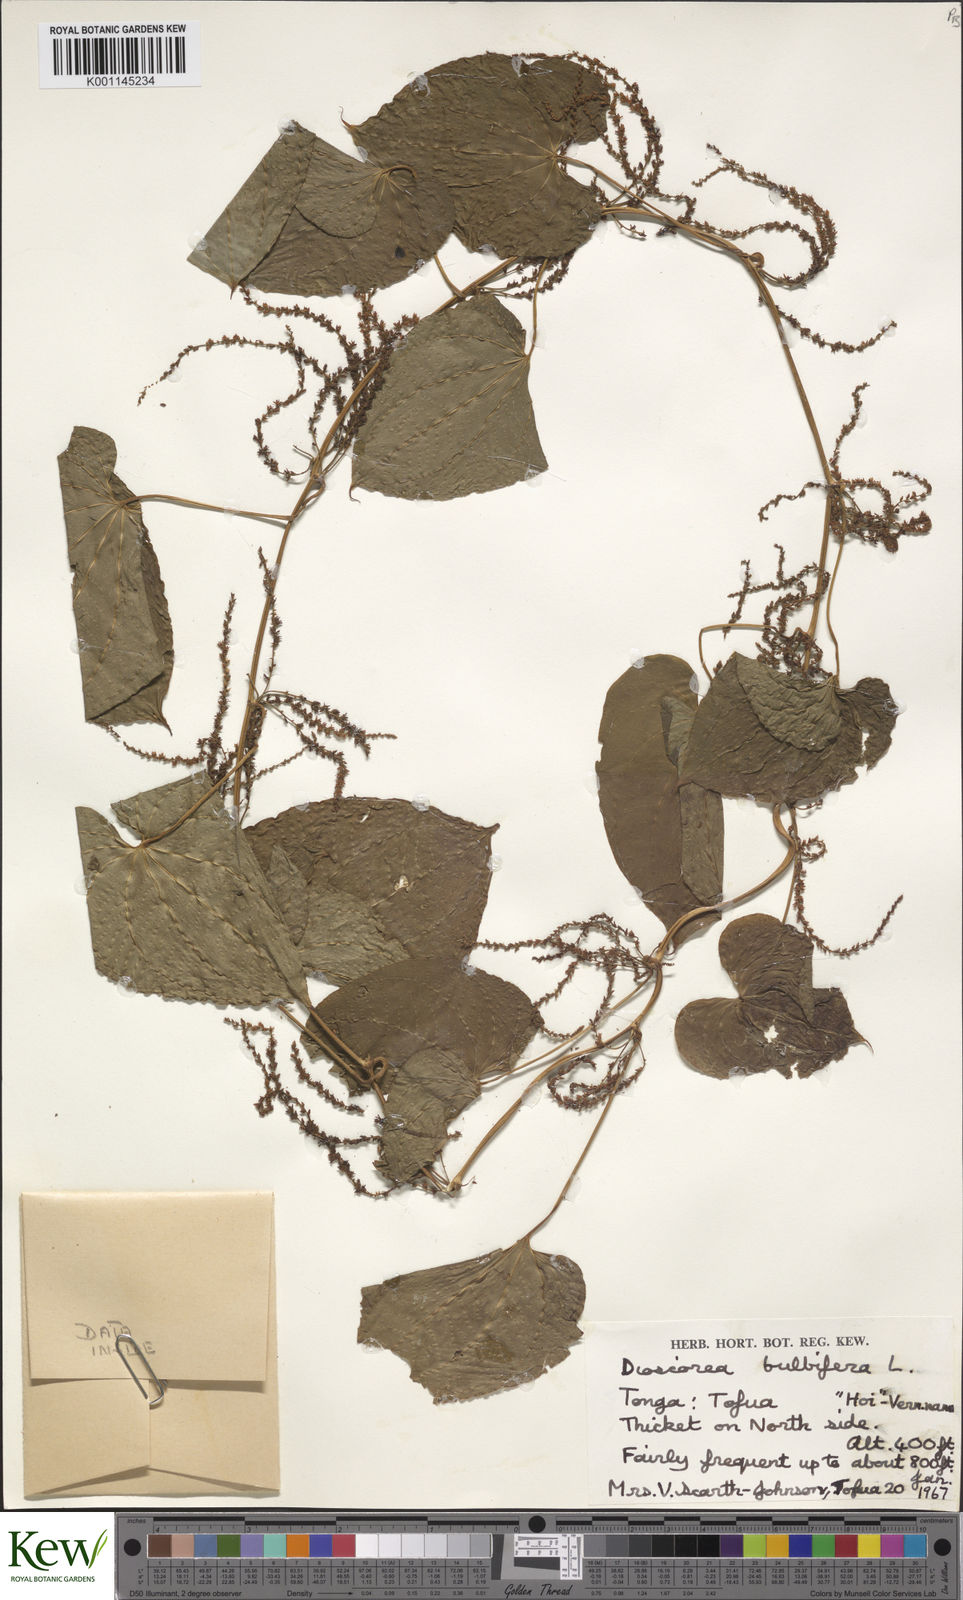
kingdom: Plantae
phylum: Tracheophyta
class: Liliopsida
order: Dioscoreales
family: Dioscoreaceae
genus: Dioscorea
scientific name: Dioscorea bulbifera
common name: Air yam
